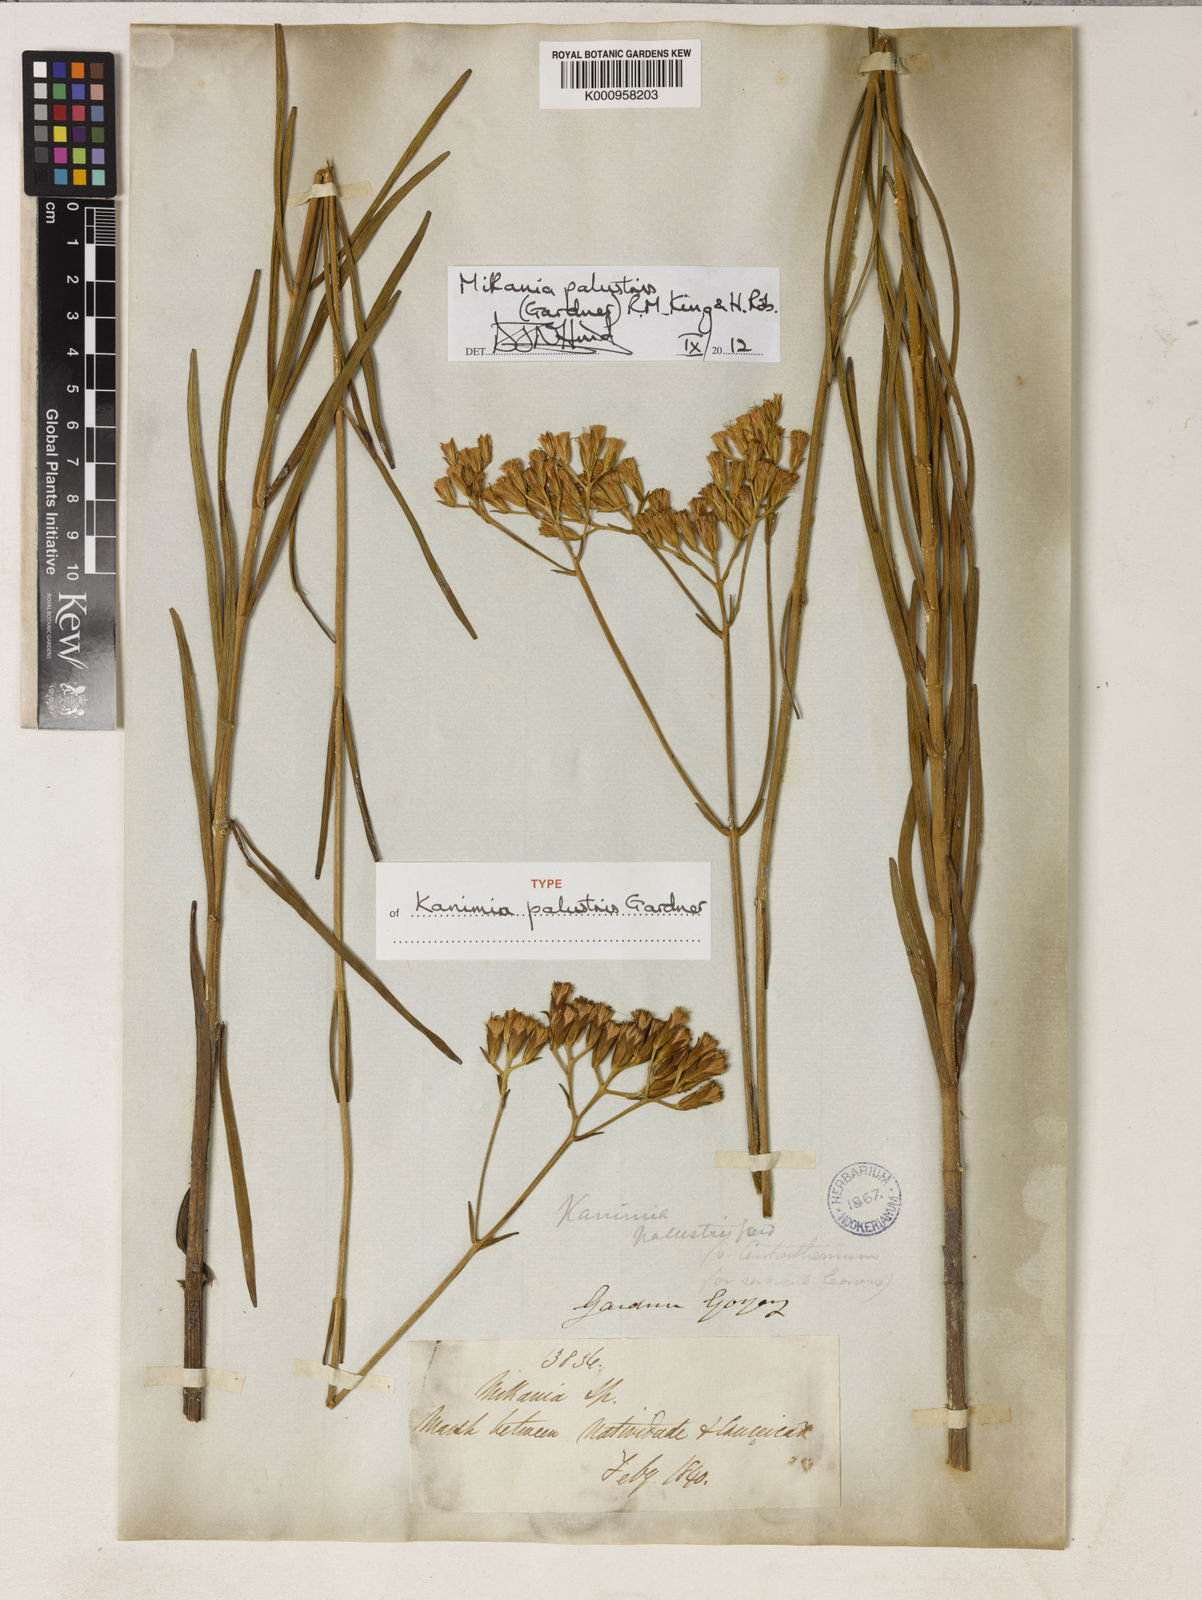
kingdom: Plantae
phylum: Tracheophyta
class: Magnoliopsida
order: Asterales
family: Asteraceae
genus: Mikania
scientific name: Mikania palustris
